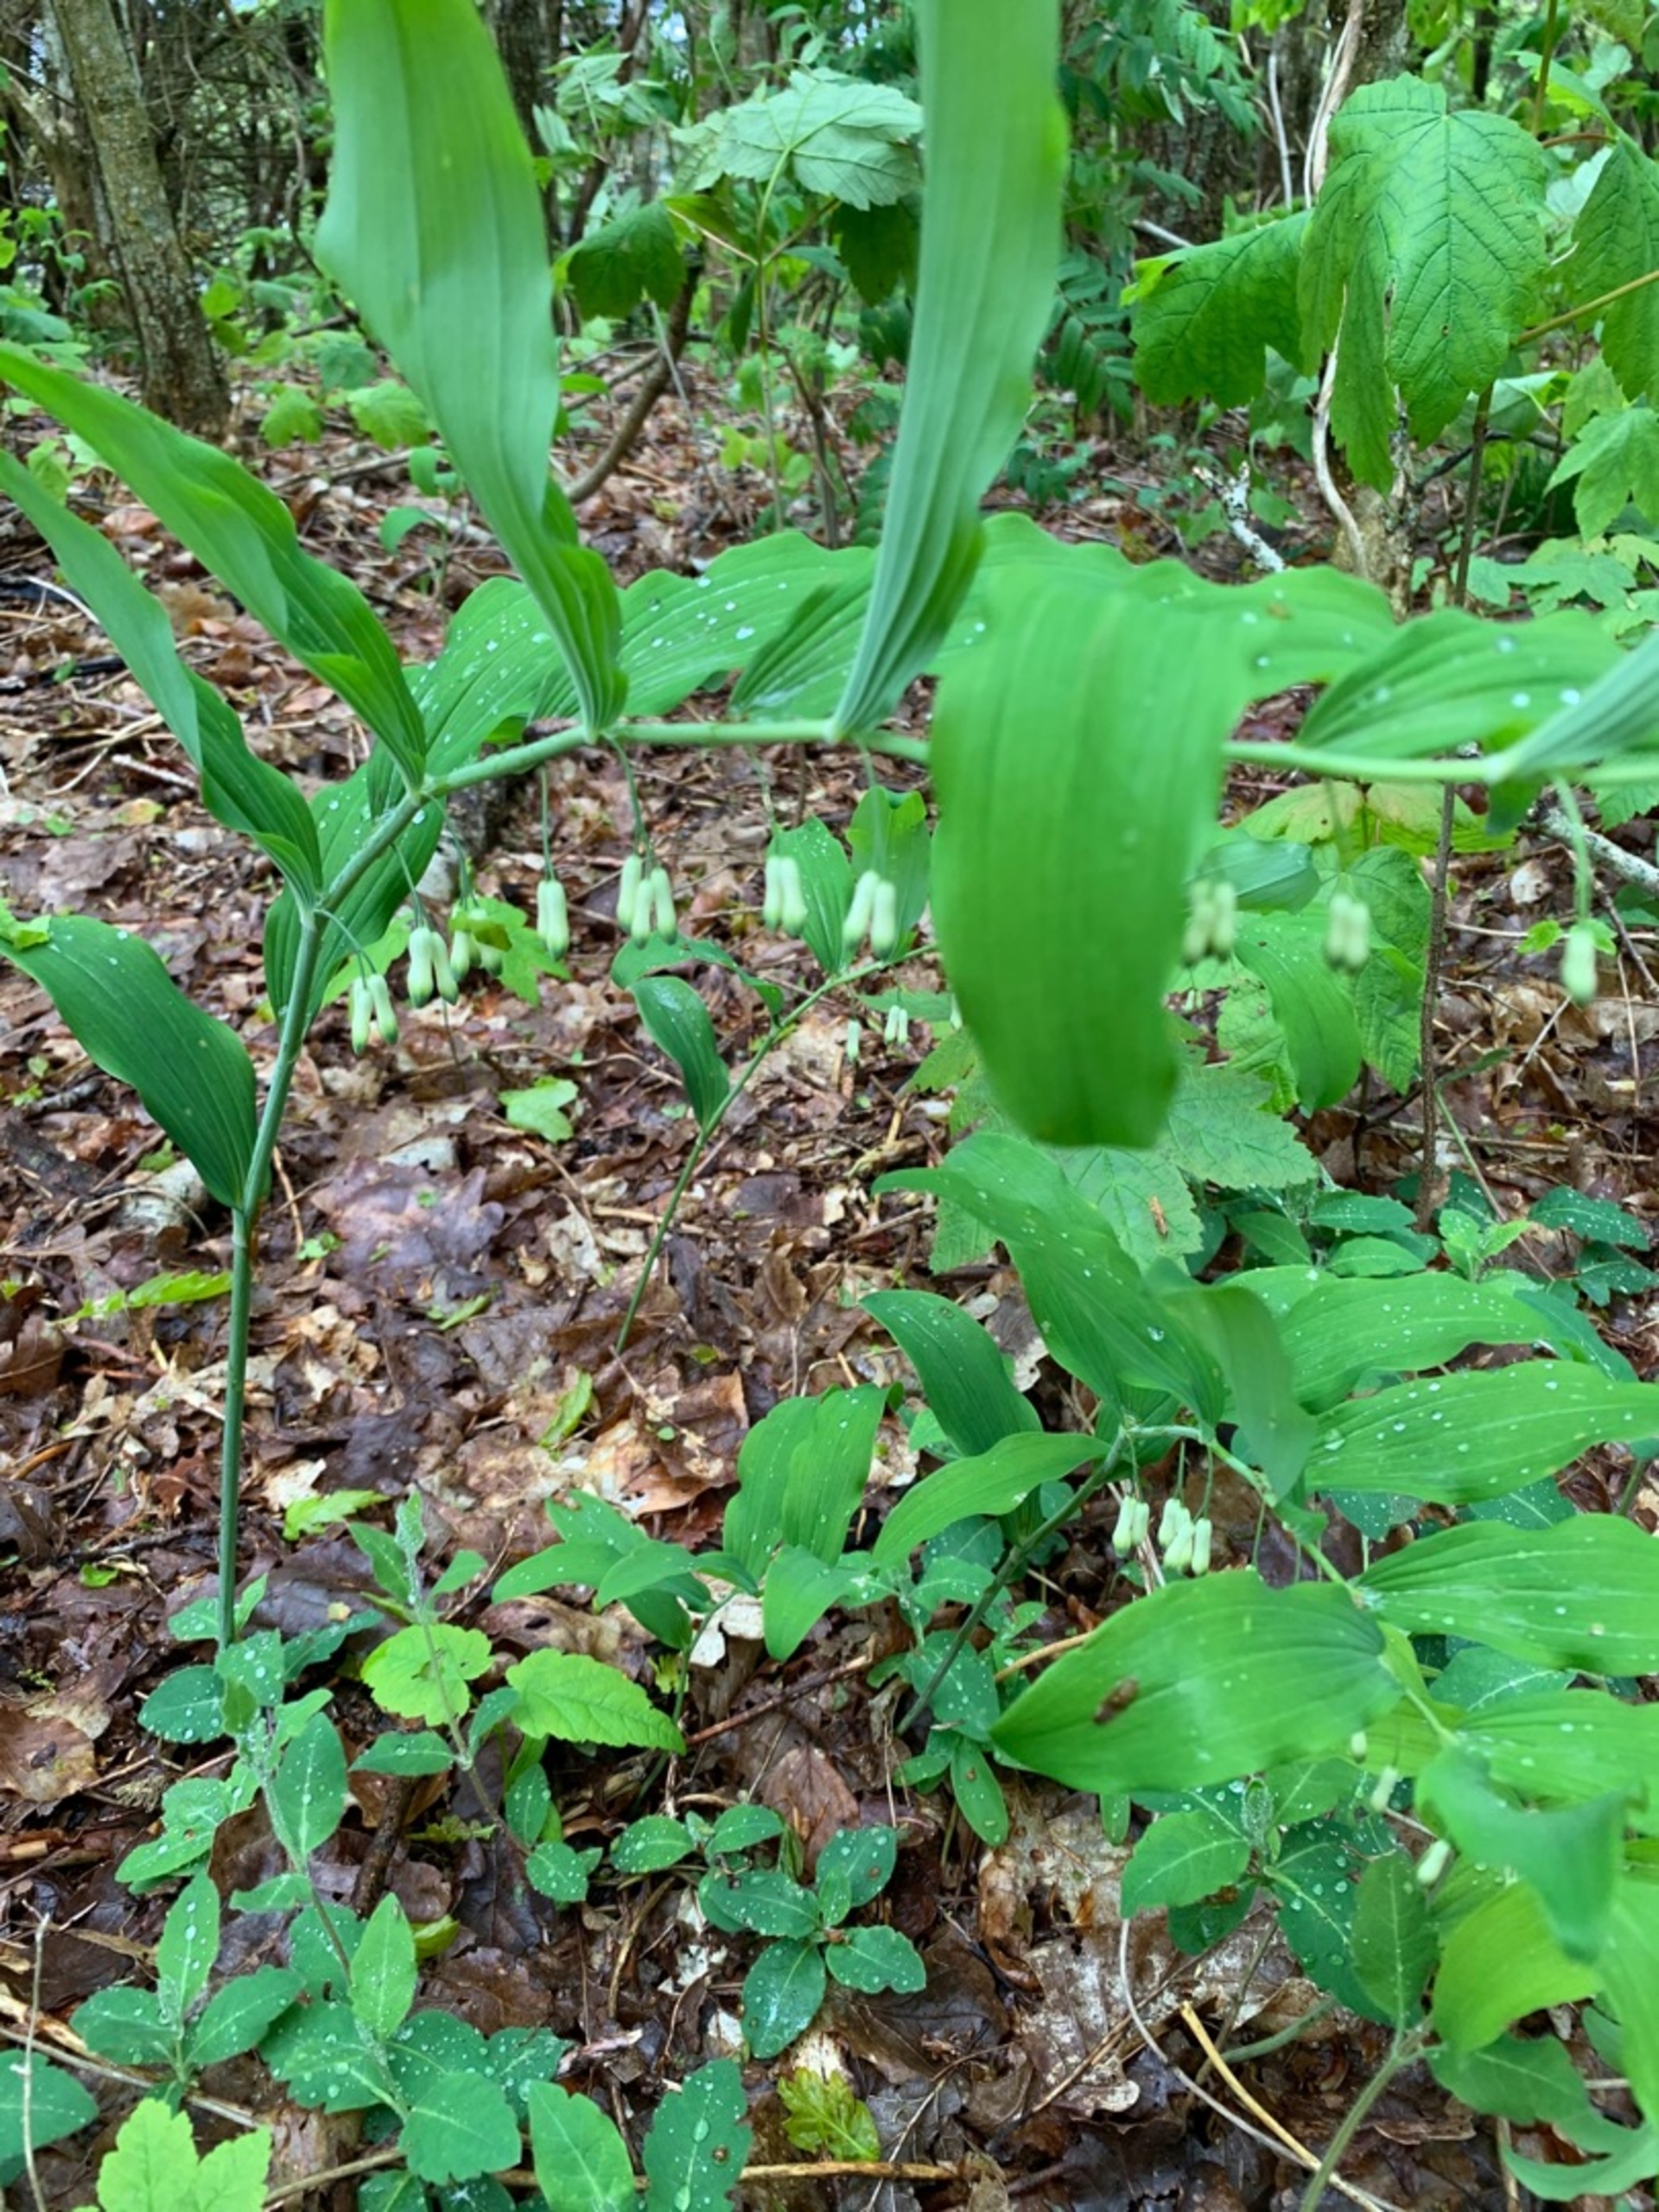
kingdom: Plantae
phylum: Tracheophyta
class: Liliopsida
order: Asparagales
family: Asparagaceae
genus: Polygonatum
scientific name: Polygonatum multiflorum
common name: Stor konval
